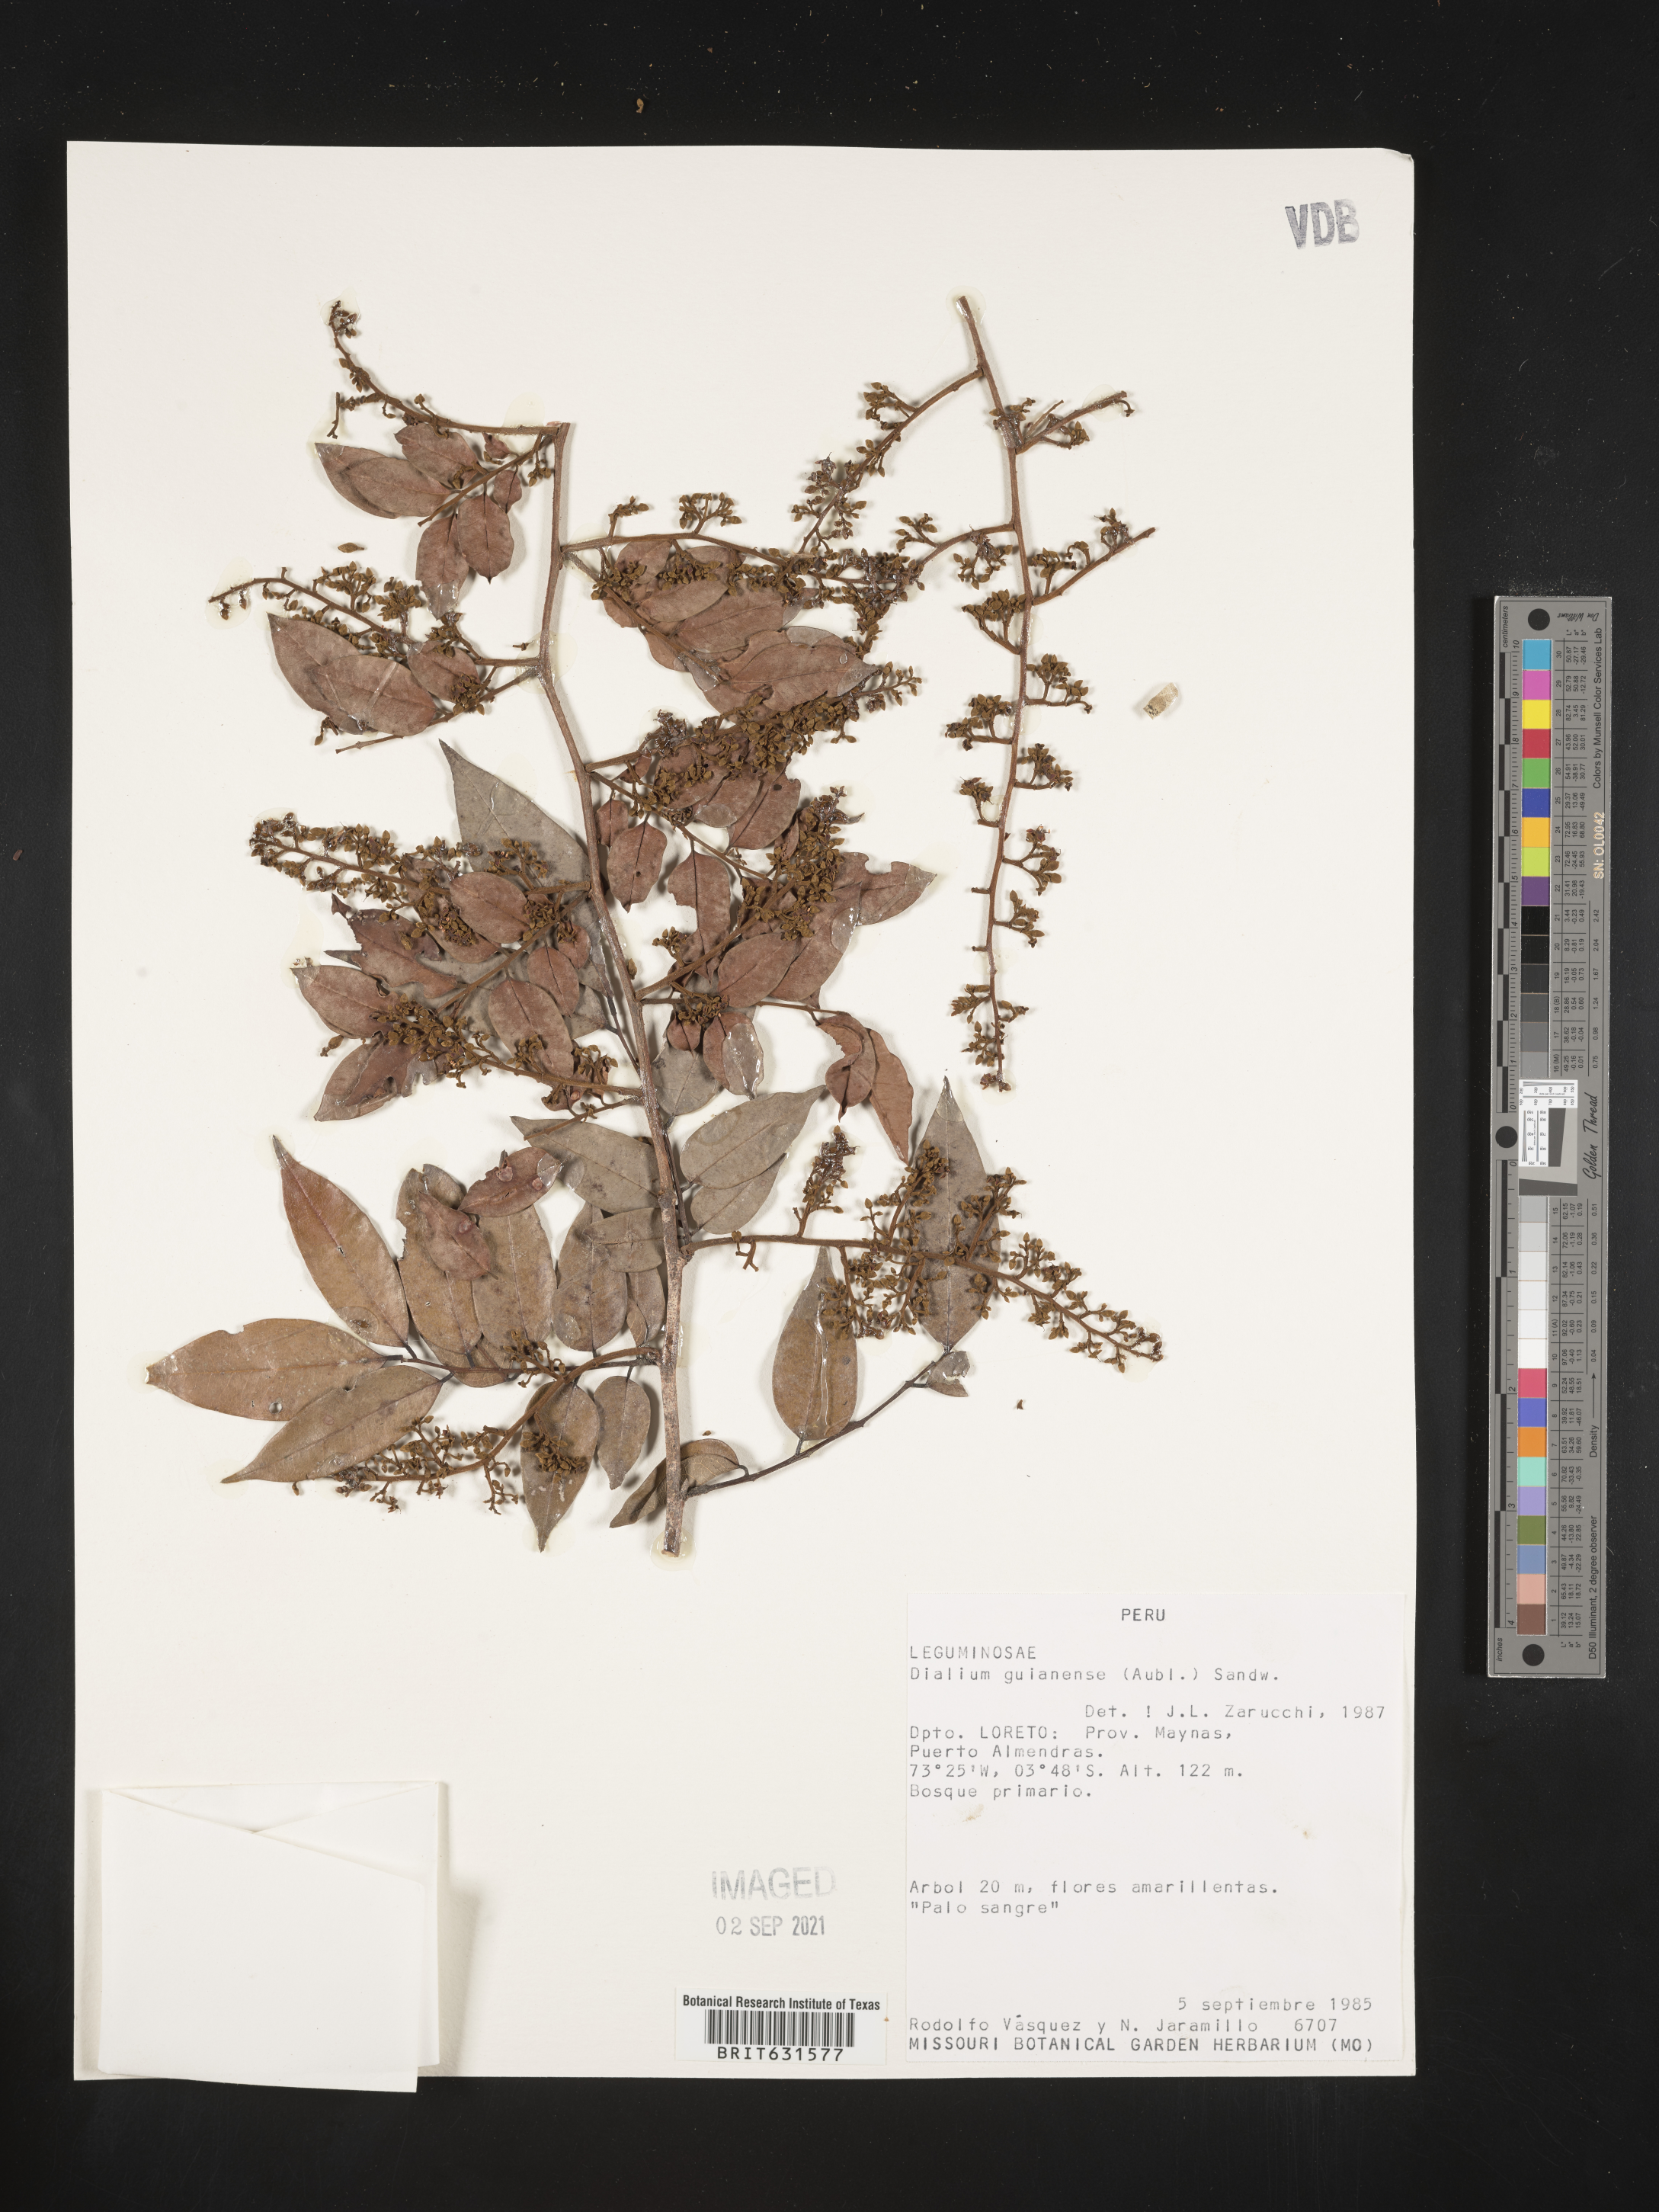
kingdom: Plantae
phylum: Tracheophyta
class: Magnoliopsida
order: Fabales
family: Fabaceae
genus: Dialium
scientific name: Dialium guianense
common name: Ironwood
